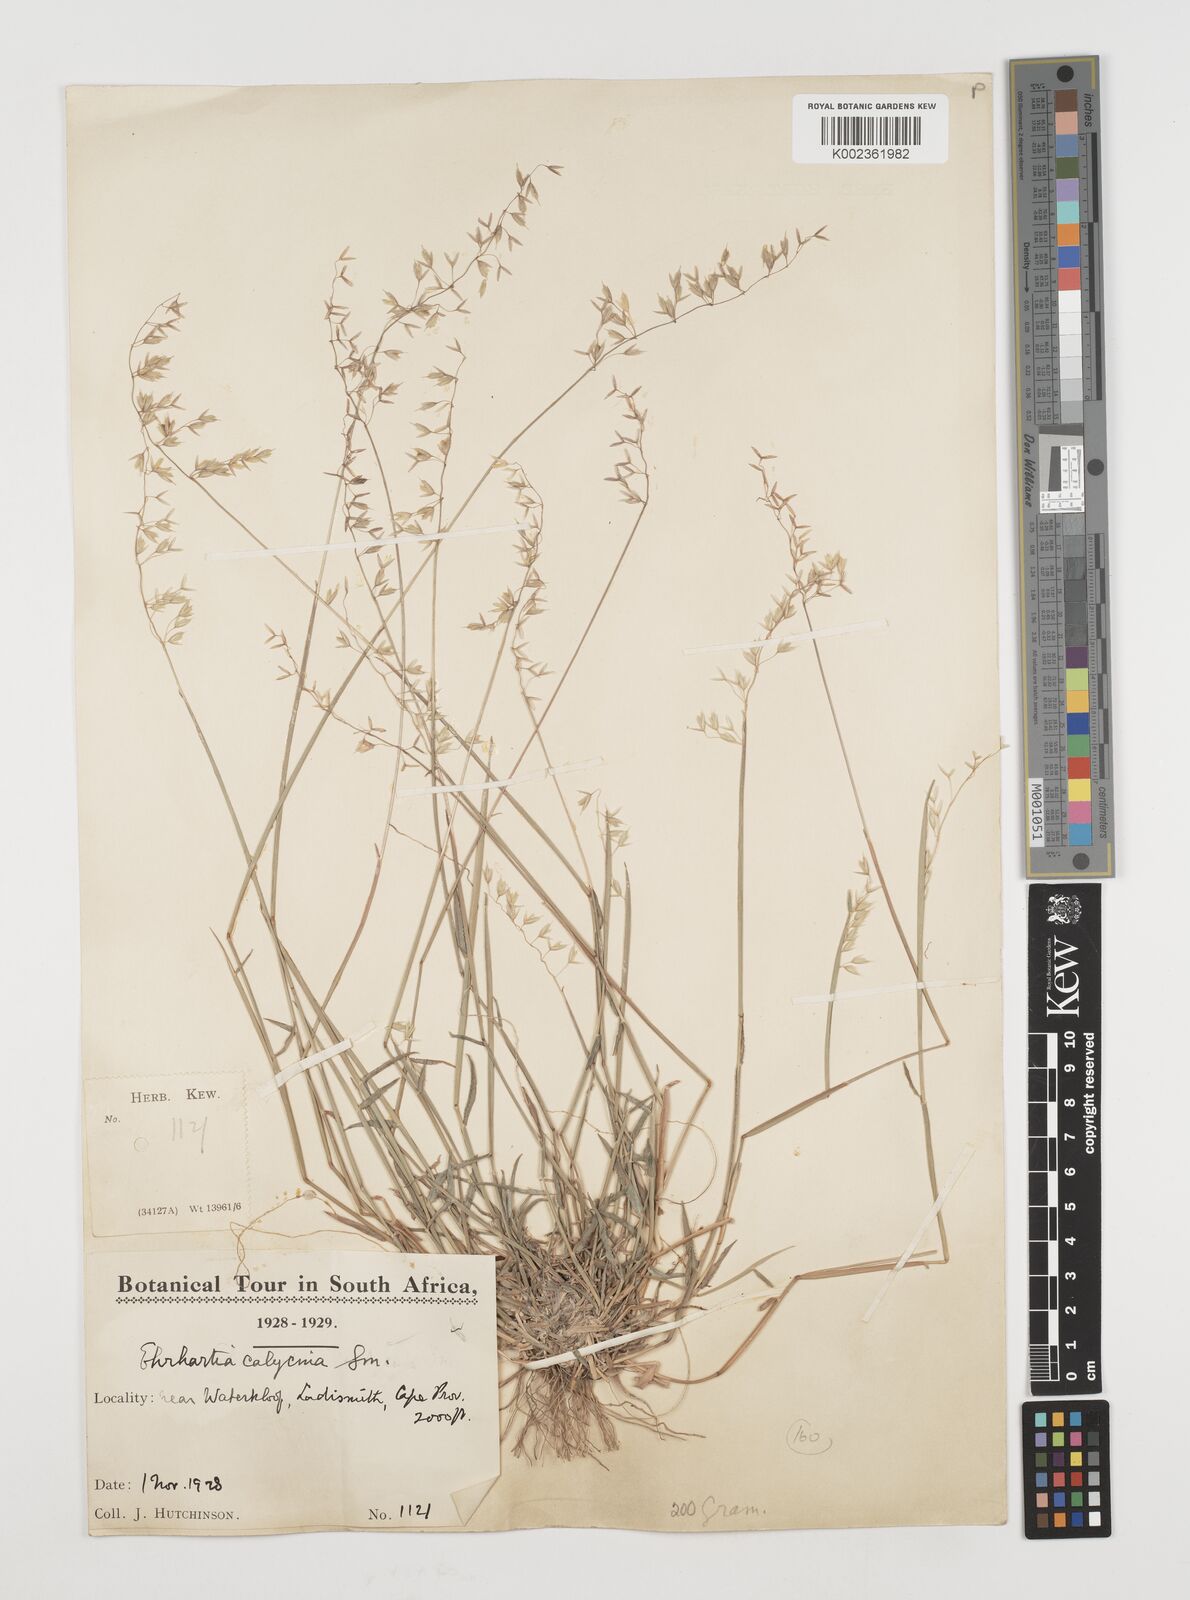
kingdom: Plantae
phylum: Tracheophyta
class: Liliopsida
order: Poales
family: Poaceae
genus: Ehrharta
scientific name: Ehrharta calycina
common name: Perennial veldtgrass
